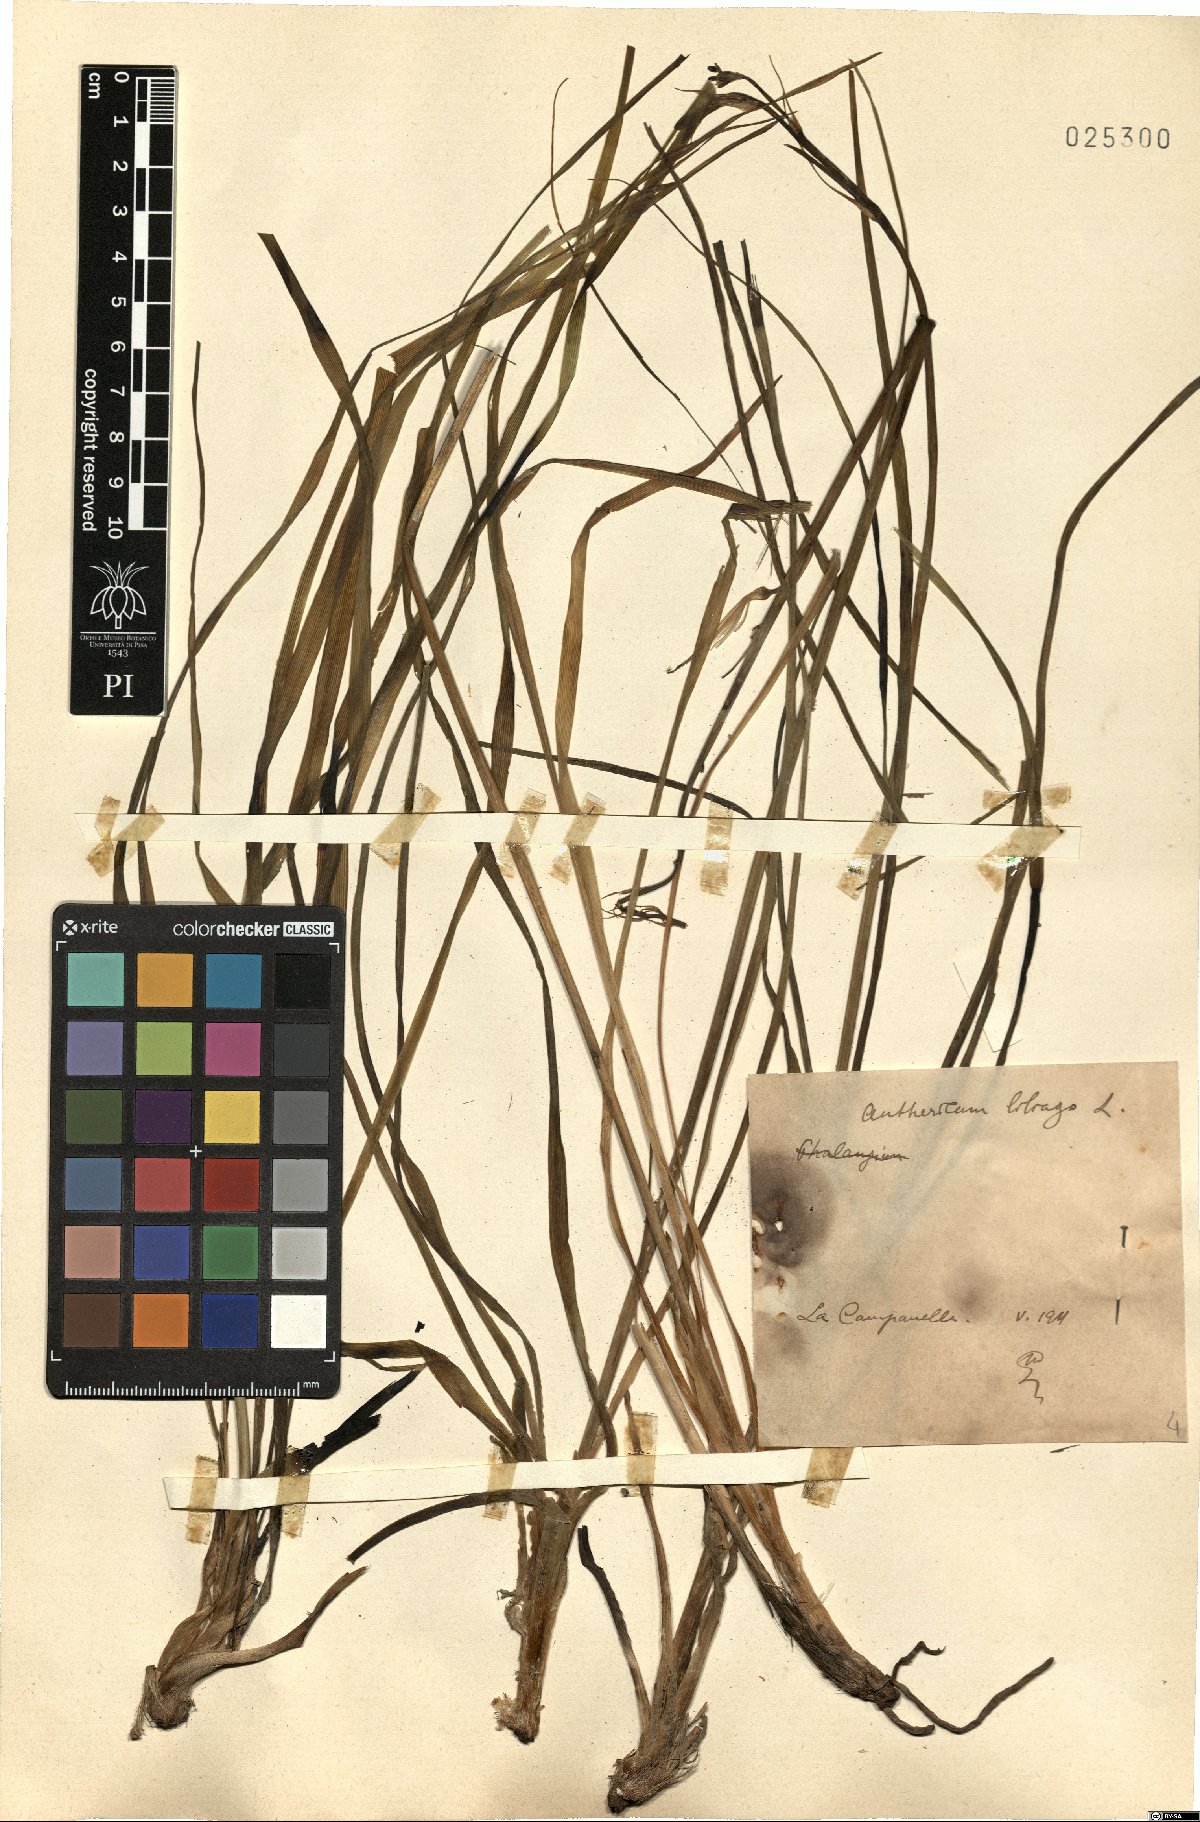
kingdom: Plantae
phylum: Tracheophyta
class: Liliopsida
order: Asparagales
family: Asparagaceae
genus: Anthericum
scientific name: Anthericum liliago
